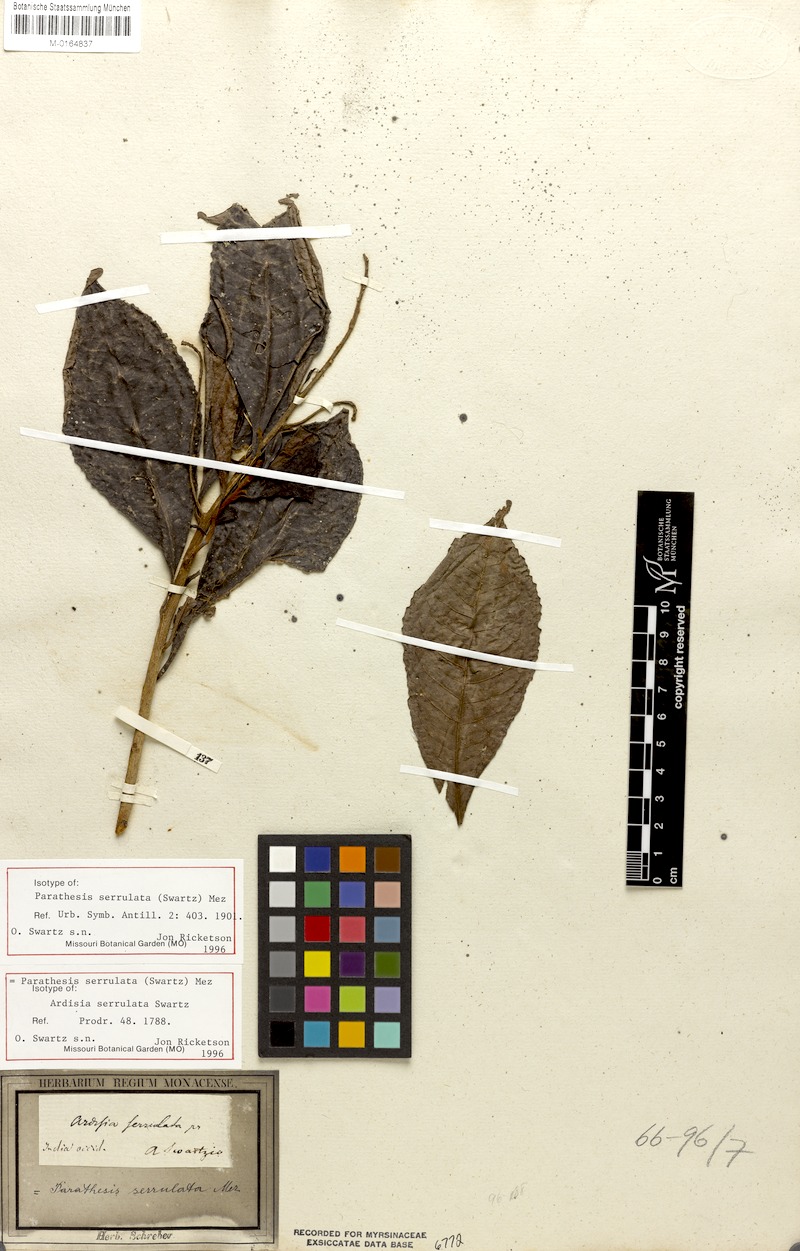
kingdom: Plantae
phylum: Tracheophyta
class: Magnoliopsida
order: Ericales
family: Primulaceae
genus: Parathesis
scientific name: Parathesis serrulata
